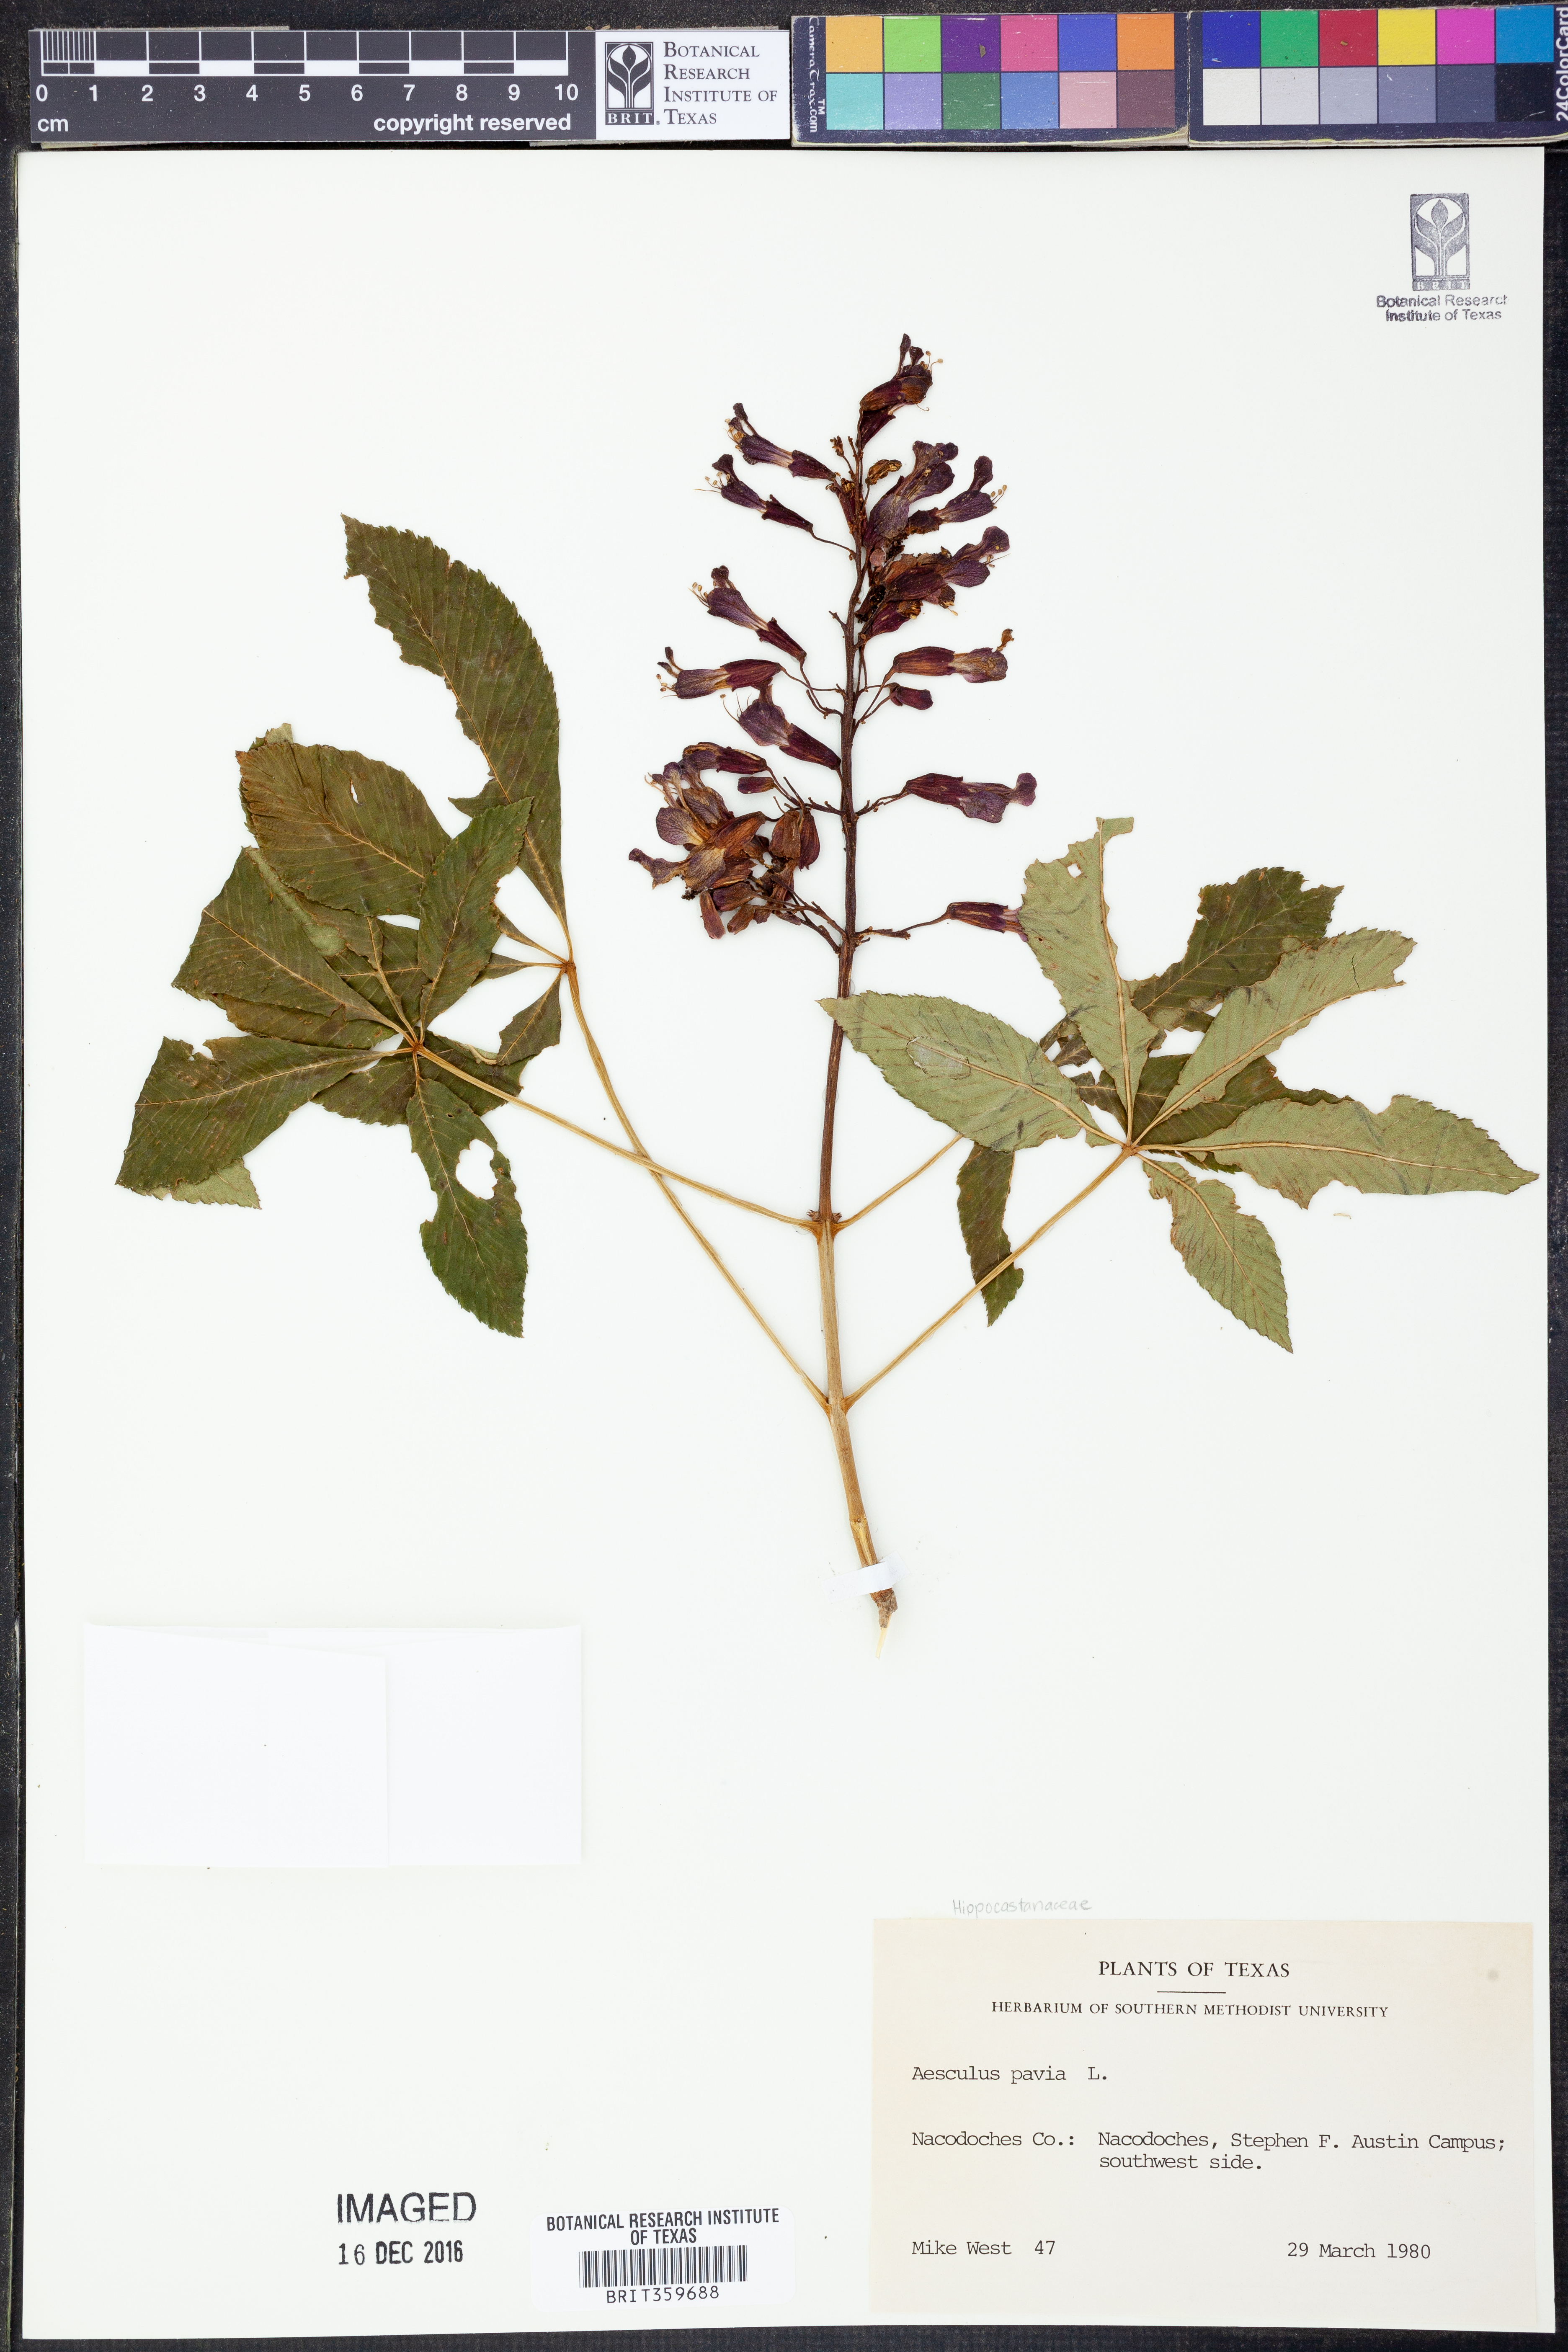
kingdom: Plantae
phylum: Tracheophyta
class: Magnoliopsida
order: Sapindales
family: Sapindaceae
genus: Aesculus
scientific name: Aesculus pavia
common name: Red buckeye
